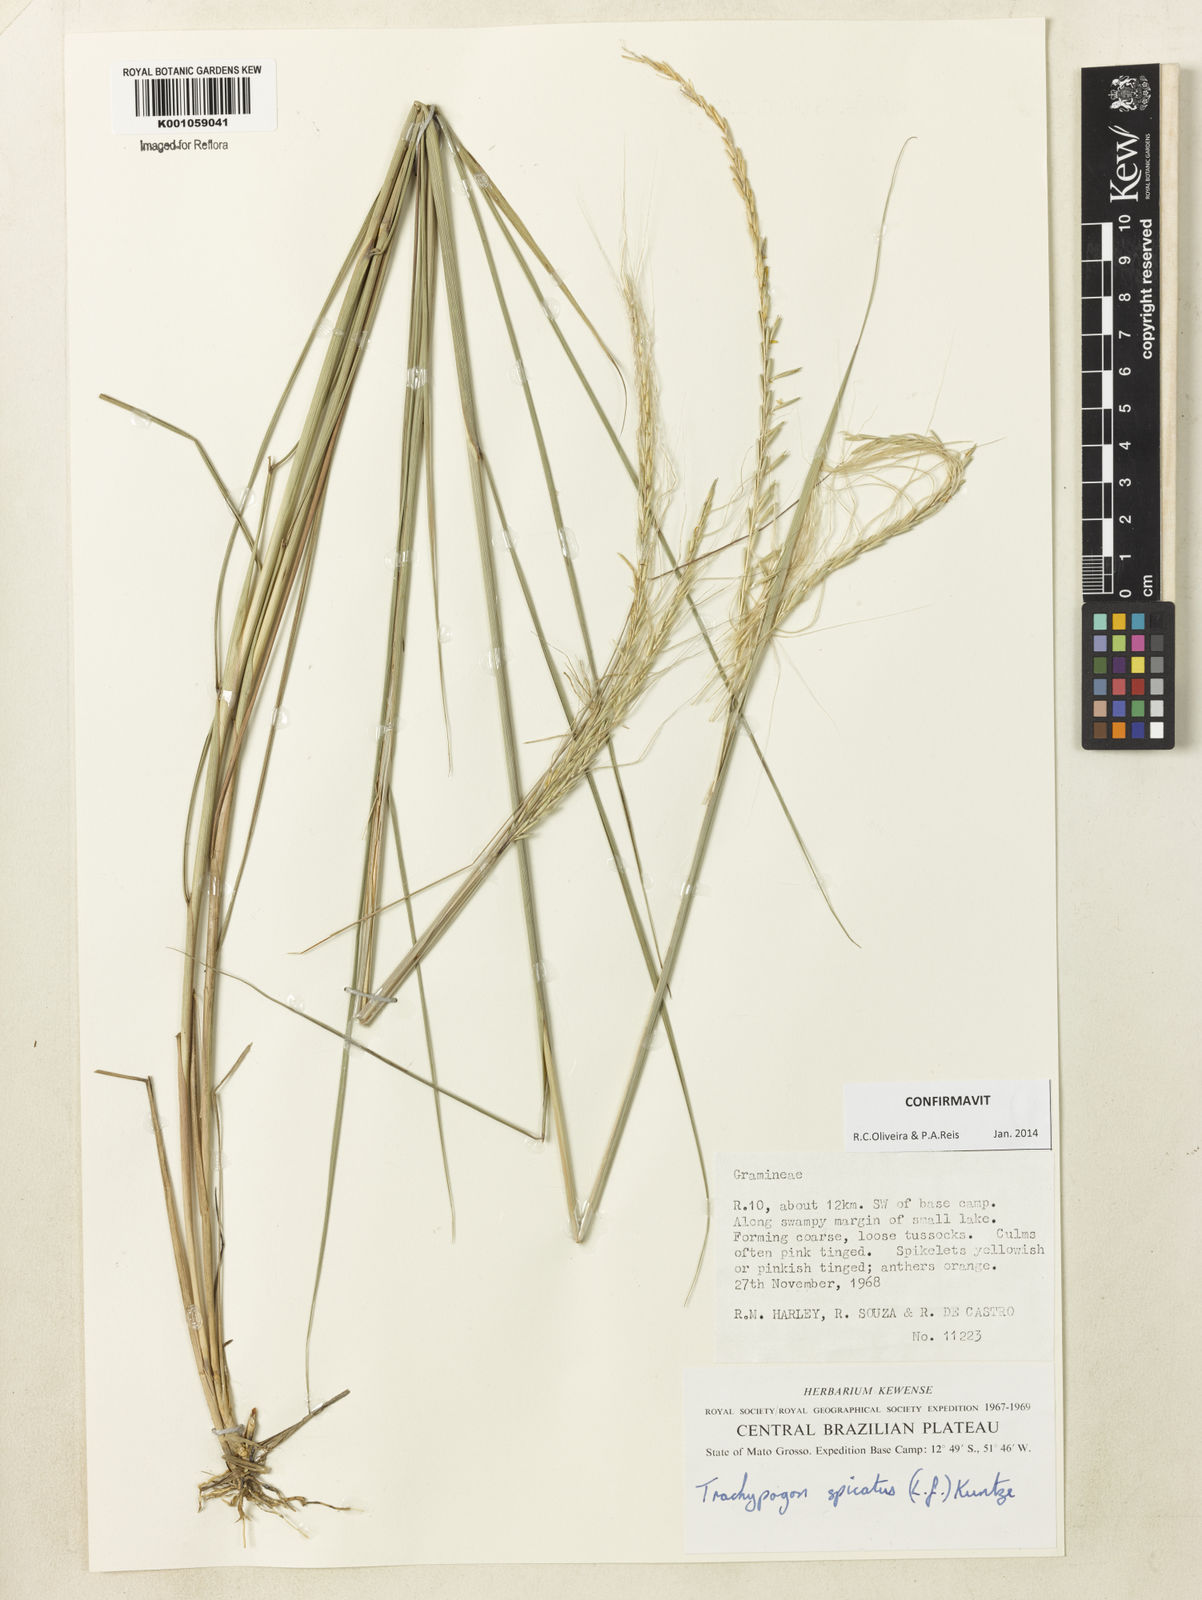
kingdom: Plantae
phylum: Tracheophyta
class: Liliopsida
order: Poales
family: Poaceae
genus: Trachypogon
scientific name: Trachypogon spicatus
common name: Crinkle-awn
